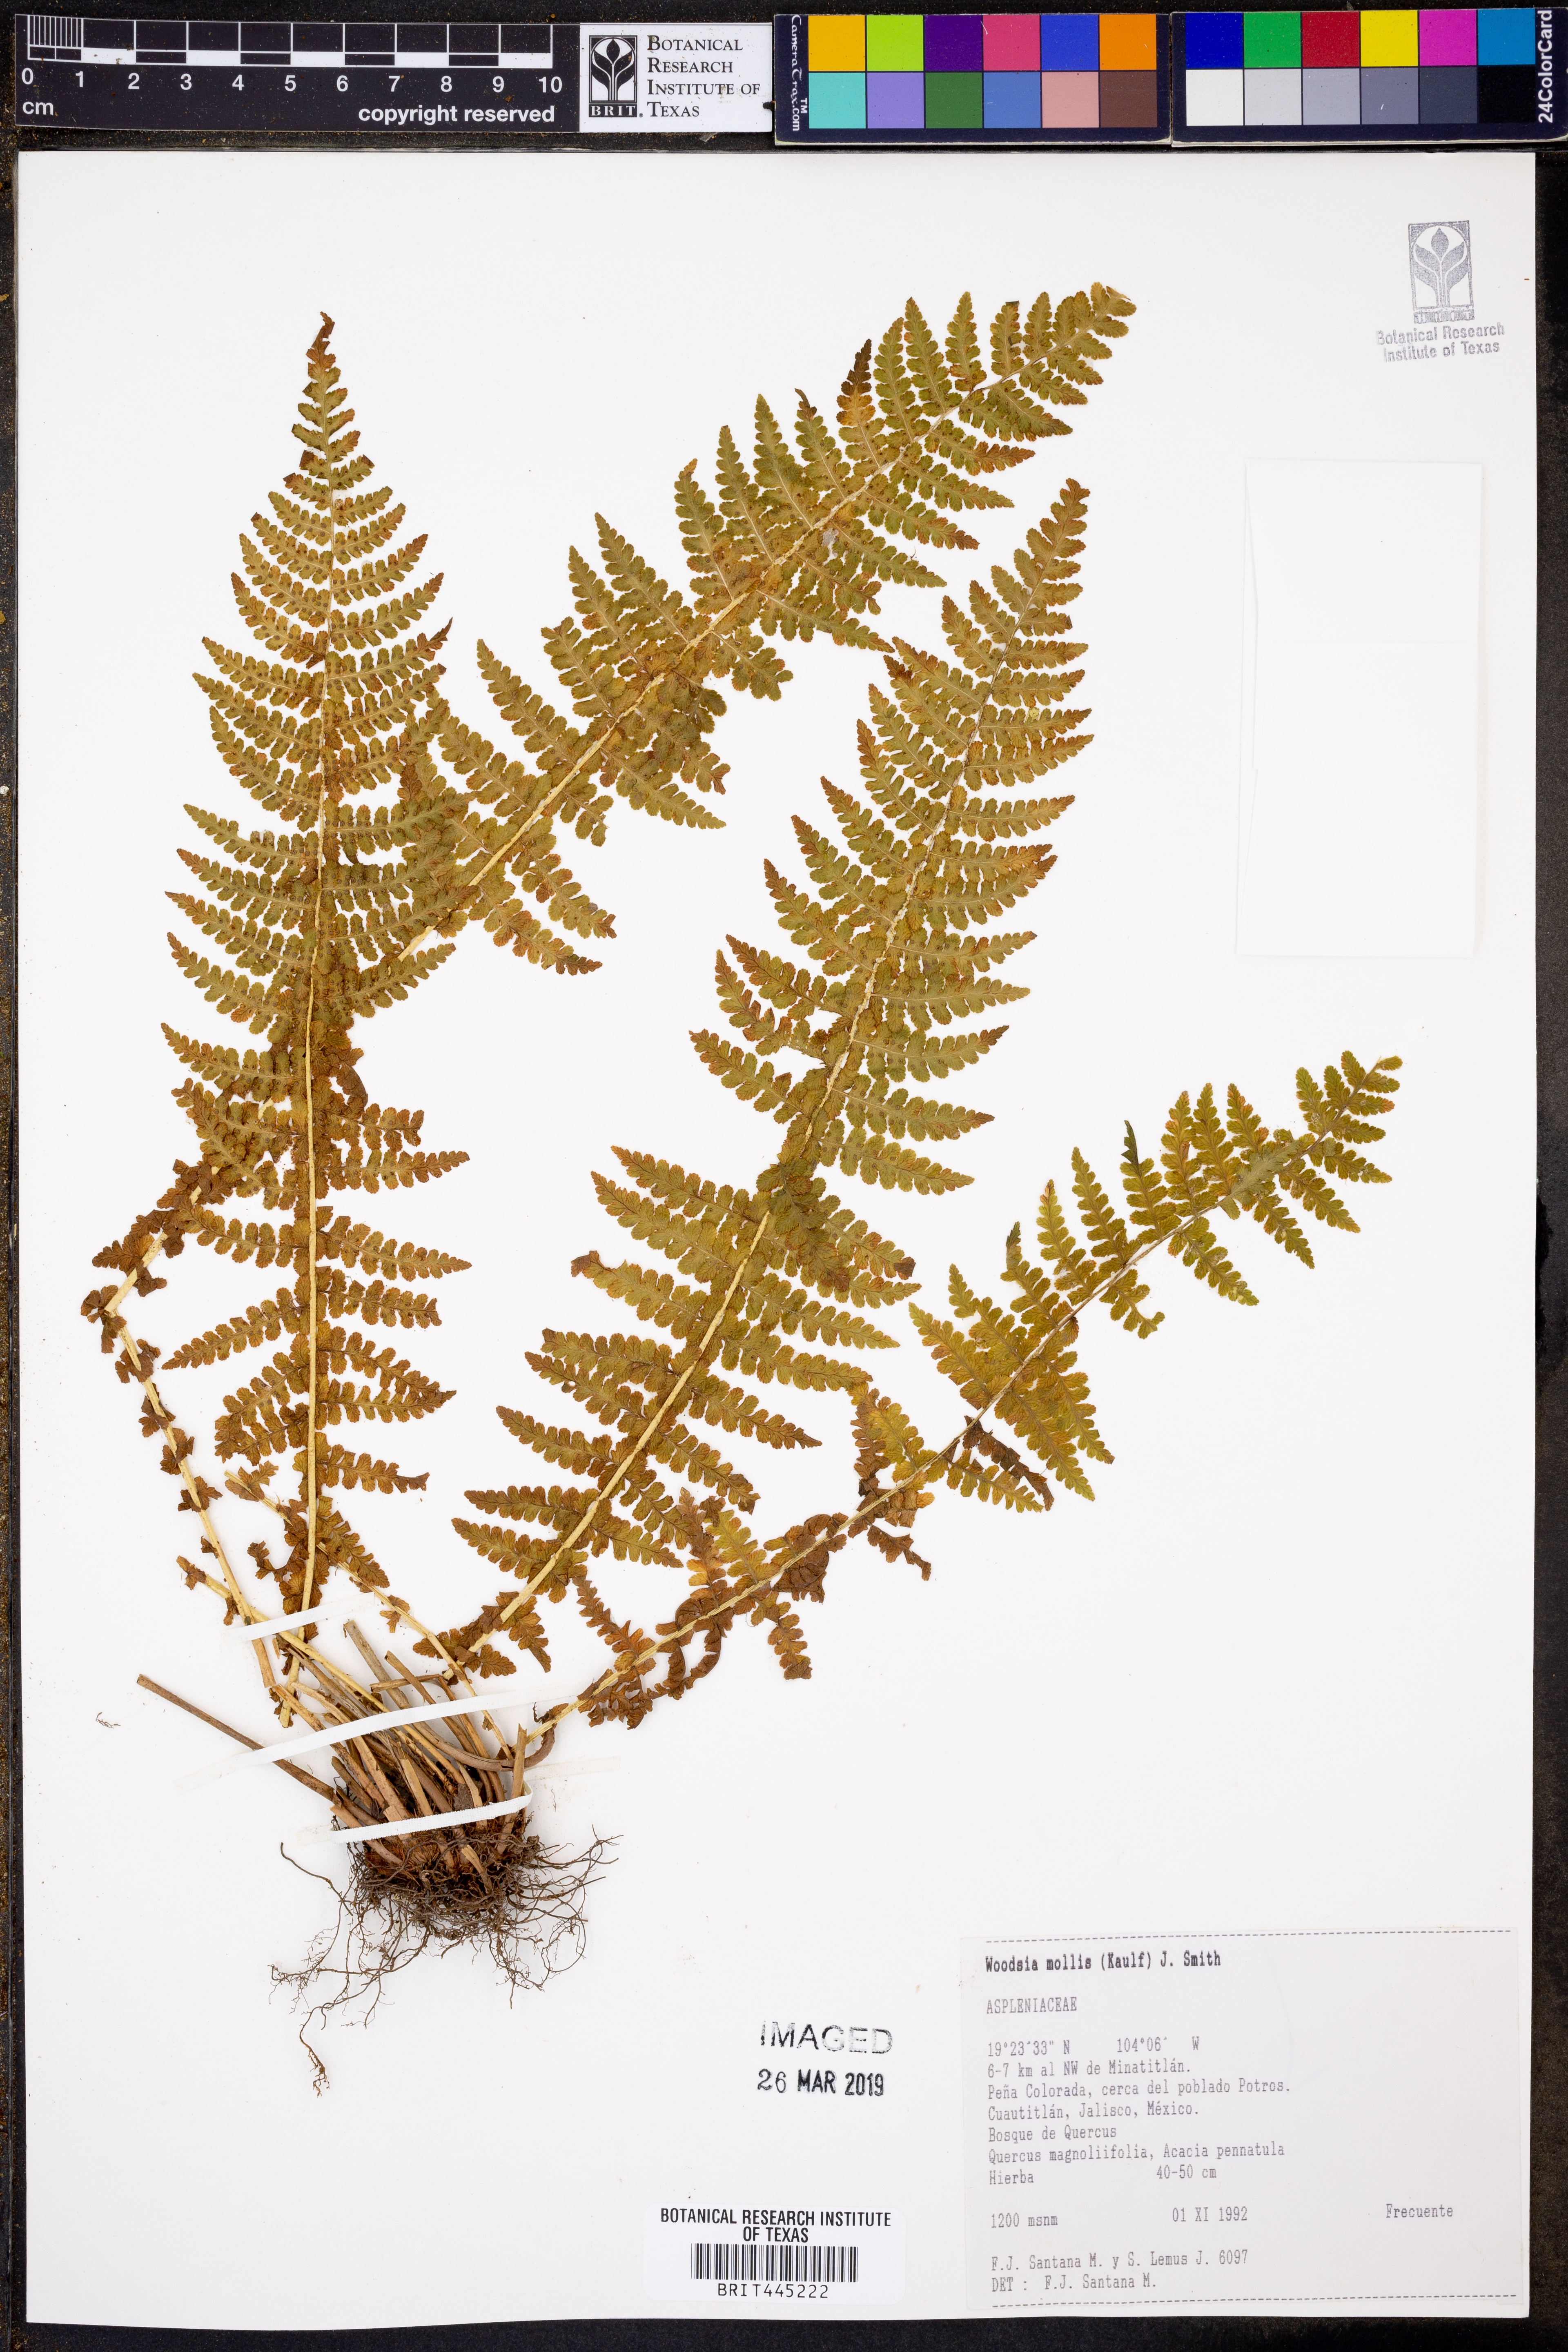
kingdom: Plantae
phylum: Tracheophyta
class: Polypodiopsida
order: Polypodiales
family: Woodsiaceae
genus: Physematium
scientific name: Physematium molle
